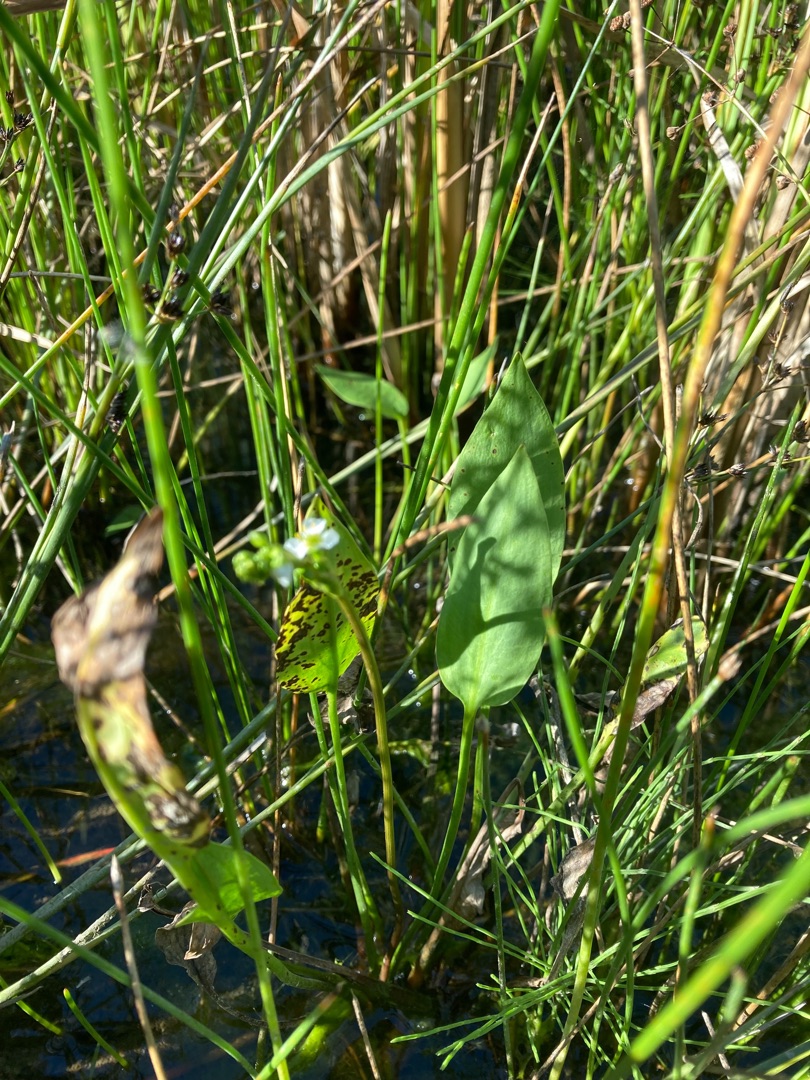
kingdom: Plantae
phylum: Tracheophyta
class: Liliopsida
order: Alismatales
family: Alismataceae
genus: Alisma
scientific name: Alisma plantago-aquatica
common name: Vejbred-skeblad
